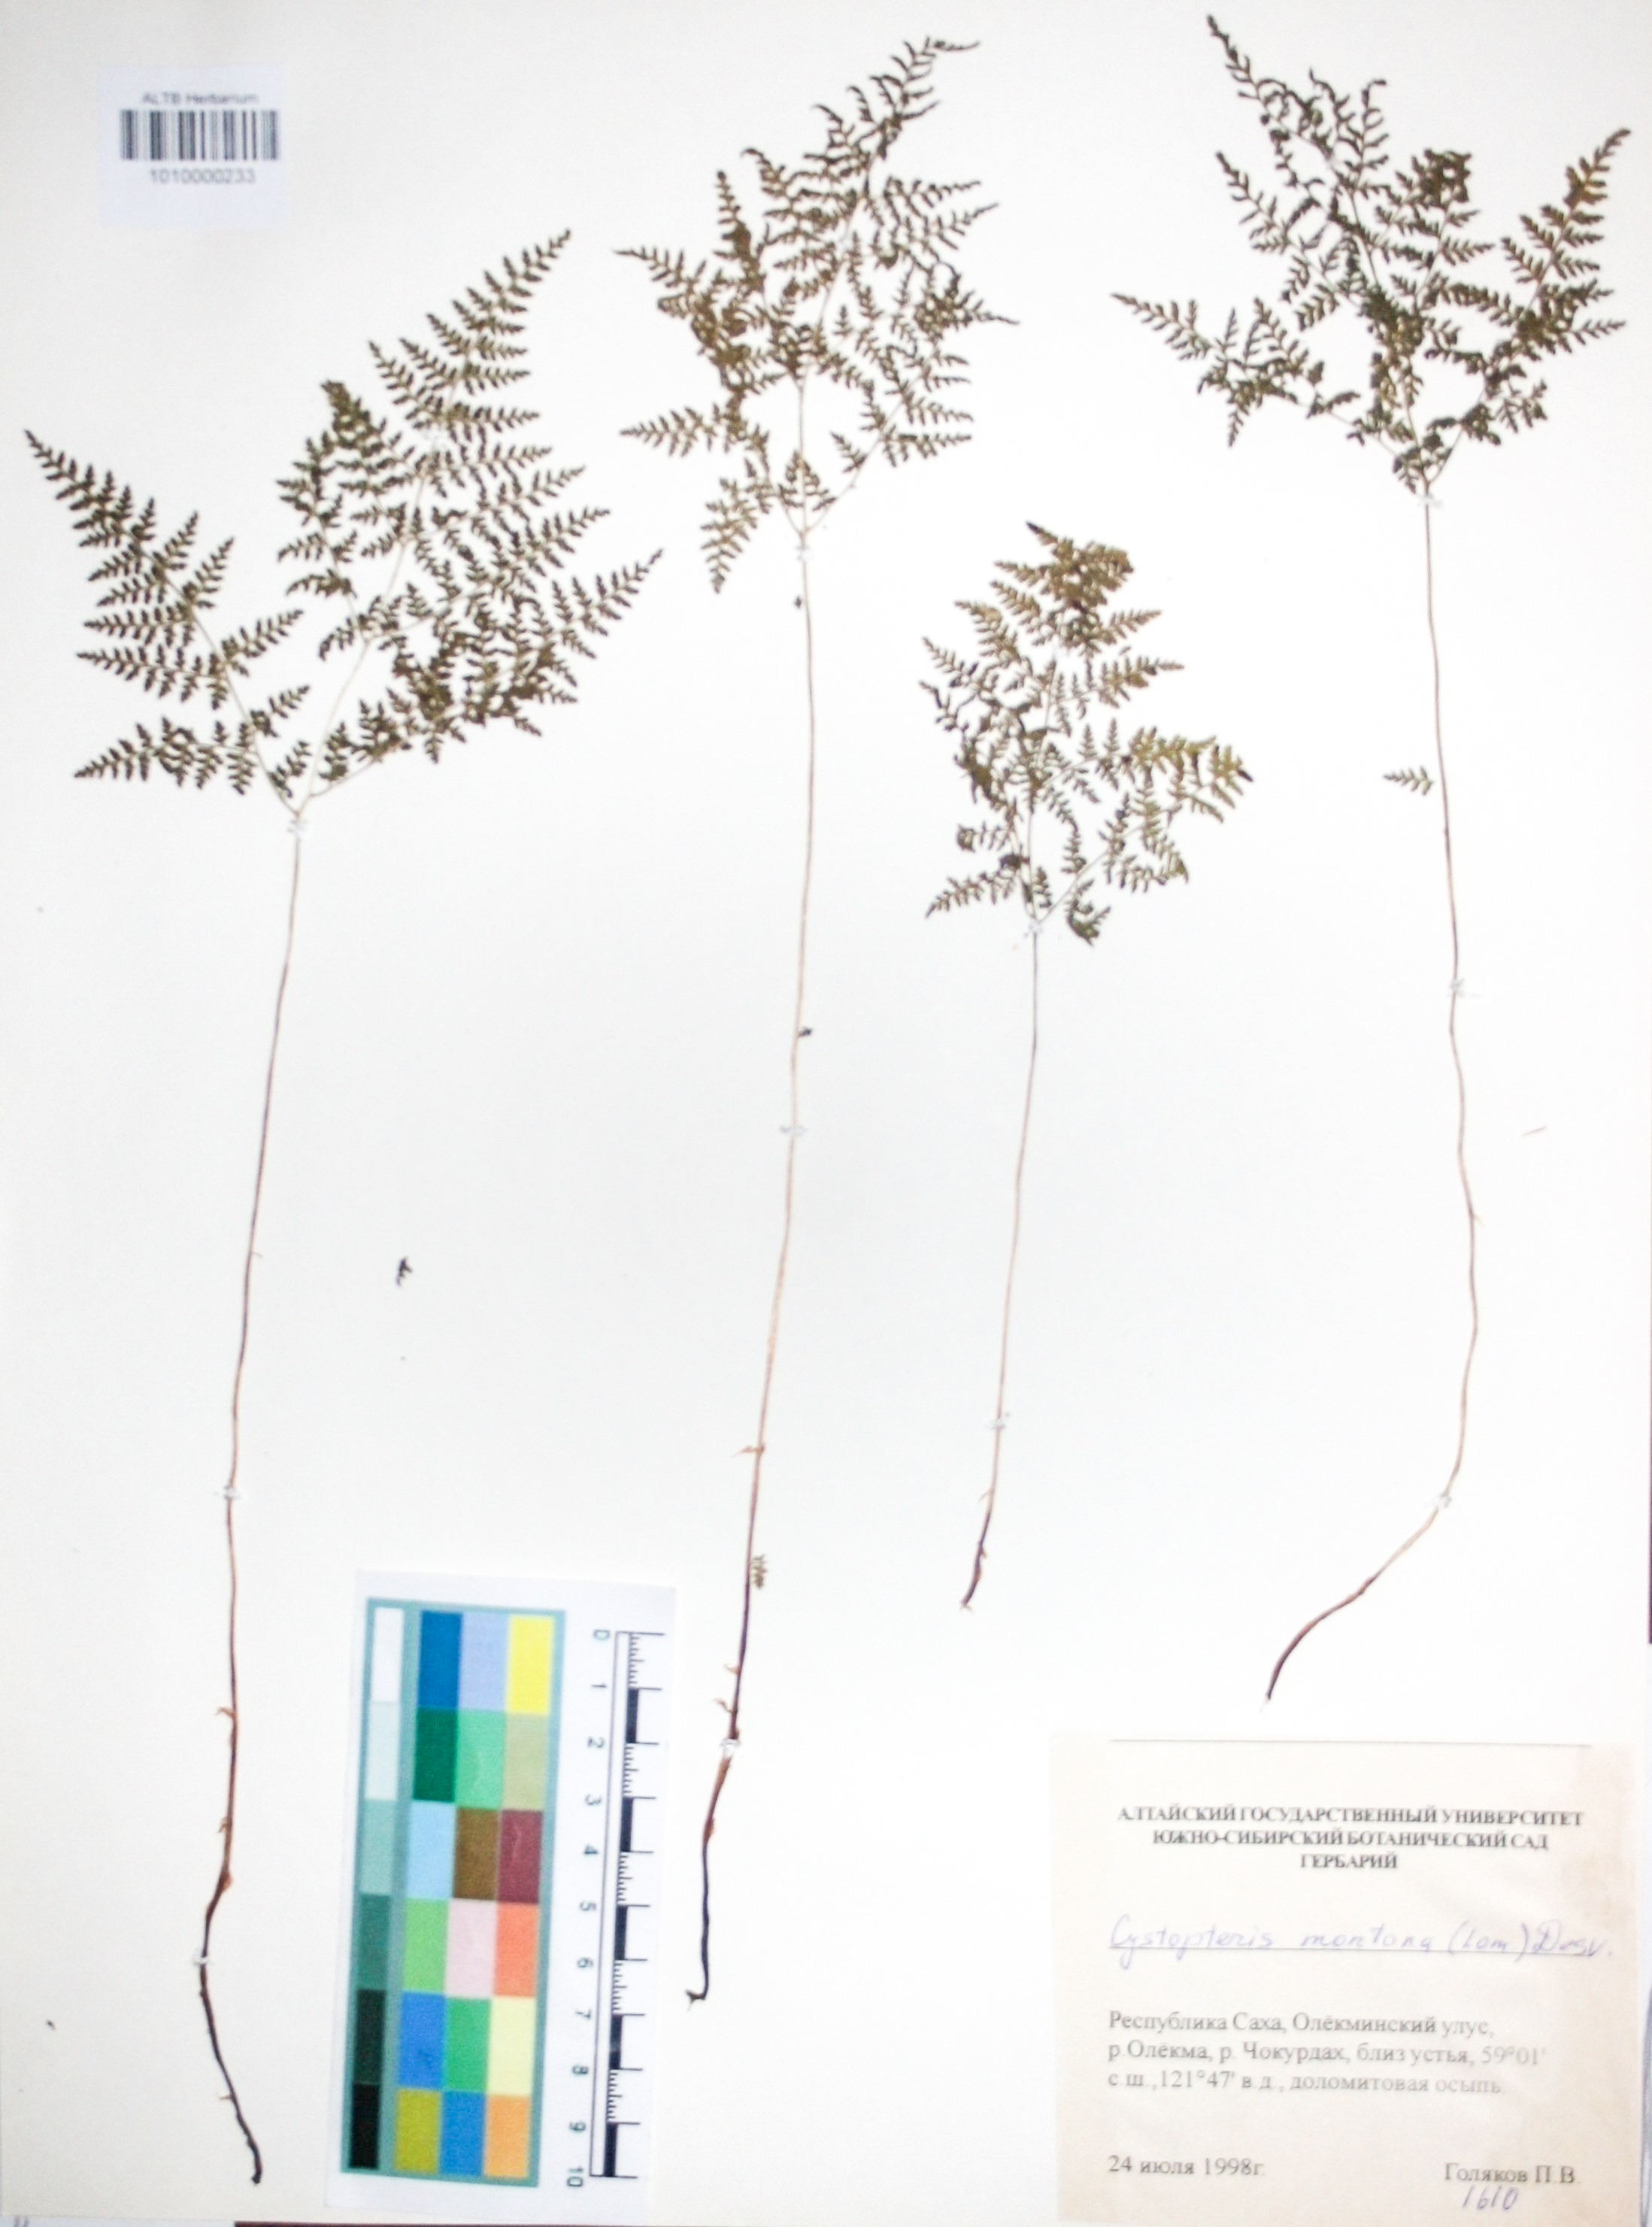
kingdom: Plantae
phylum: Tracheophyta
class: Polypodiopsida
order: Polypodiales
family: Cystopteridaceae
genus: Cystopteris
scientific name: Cystopteris montana
